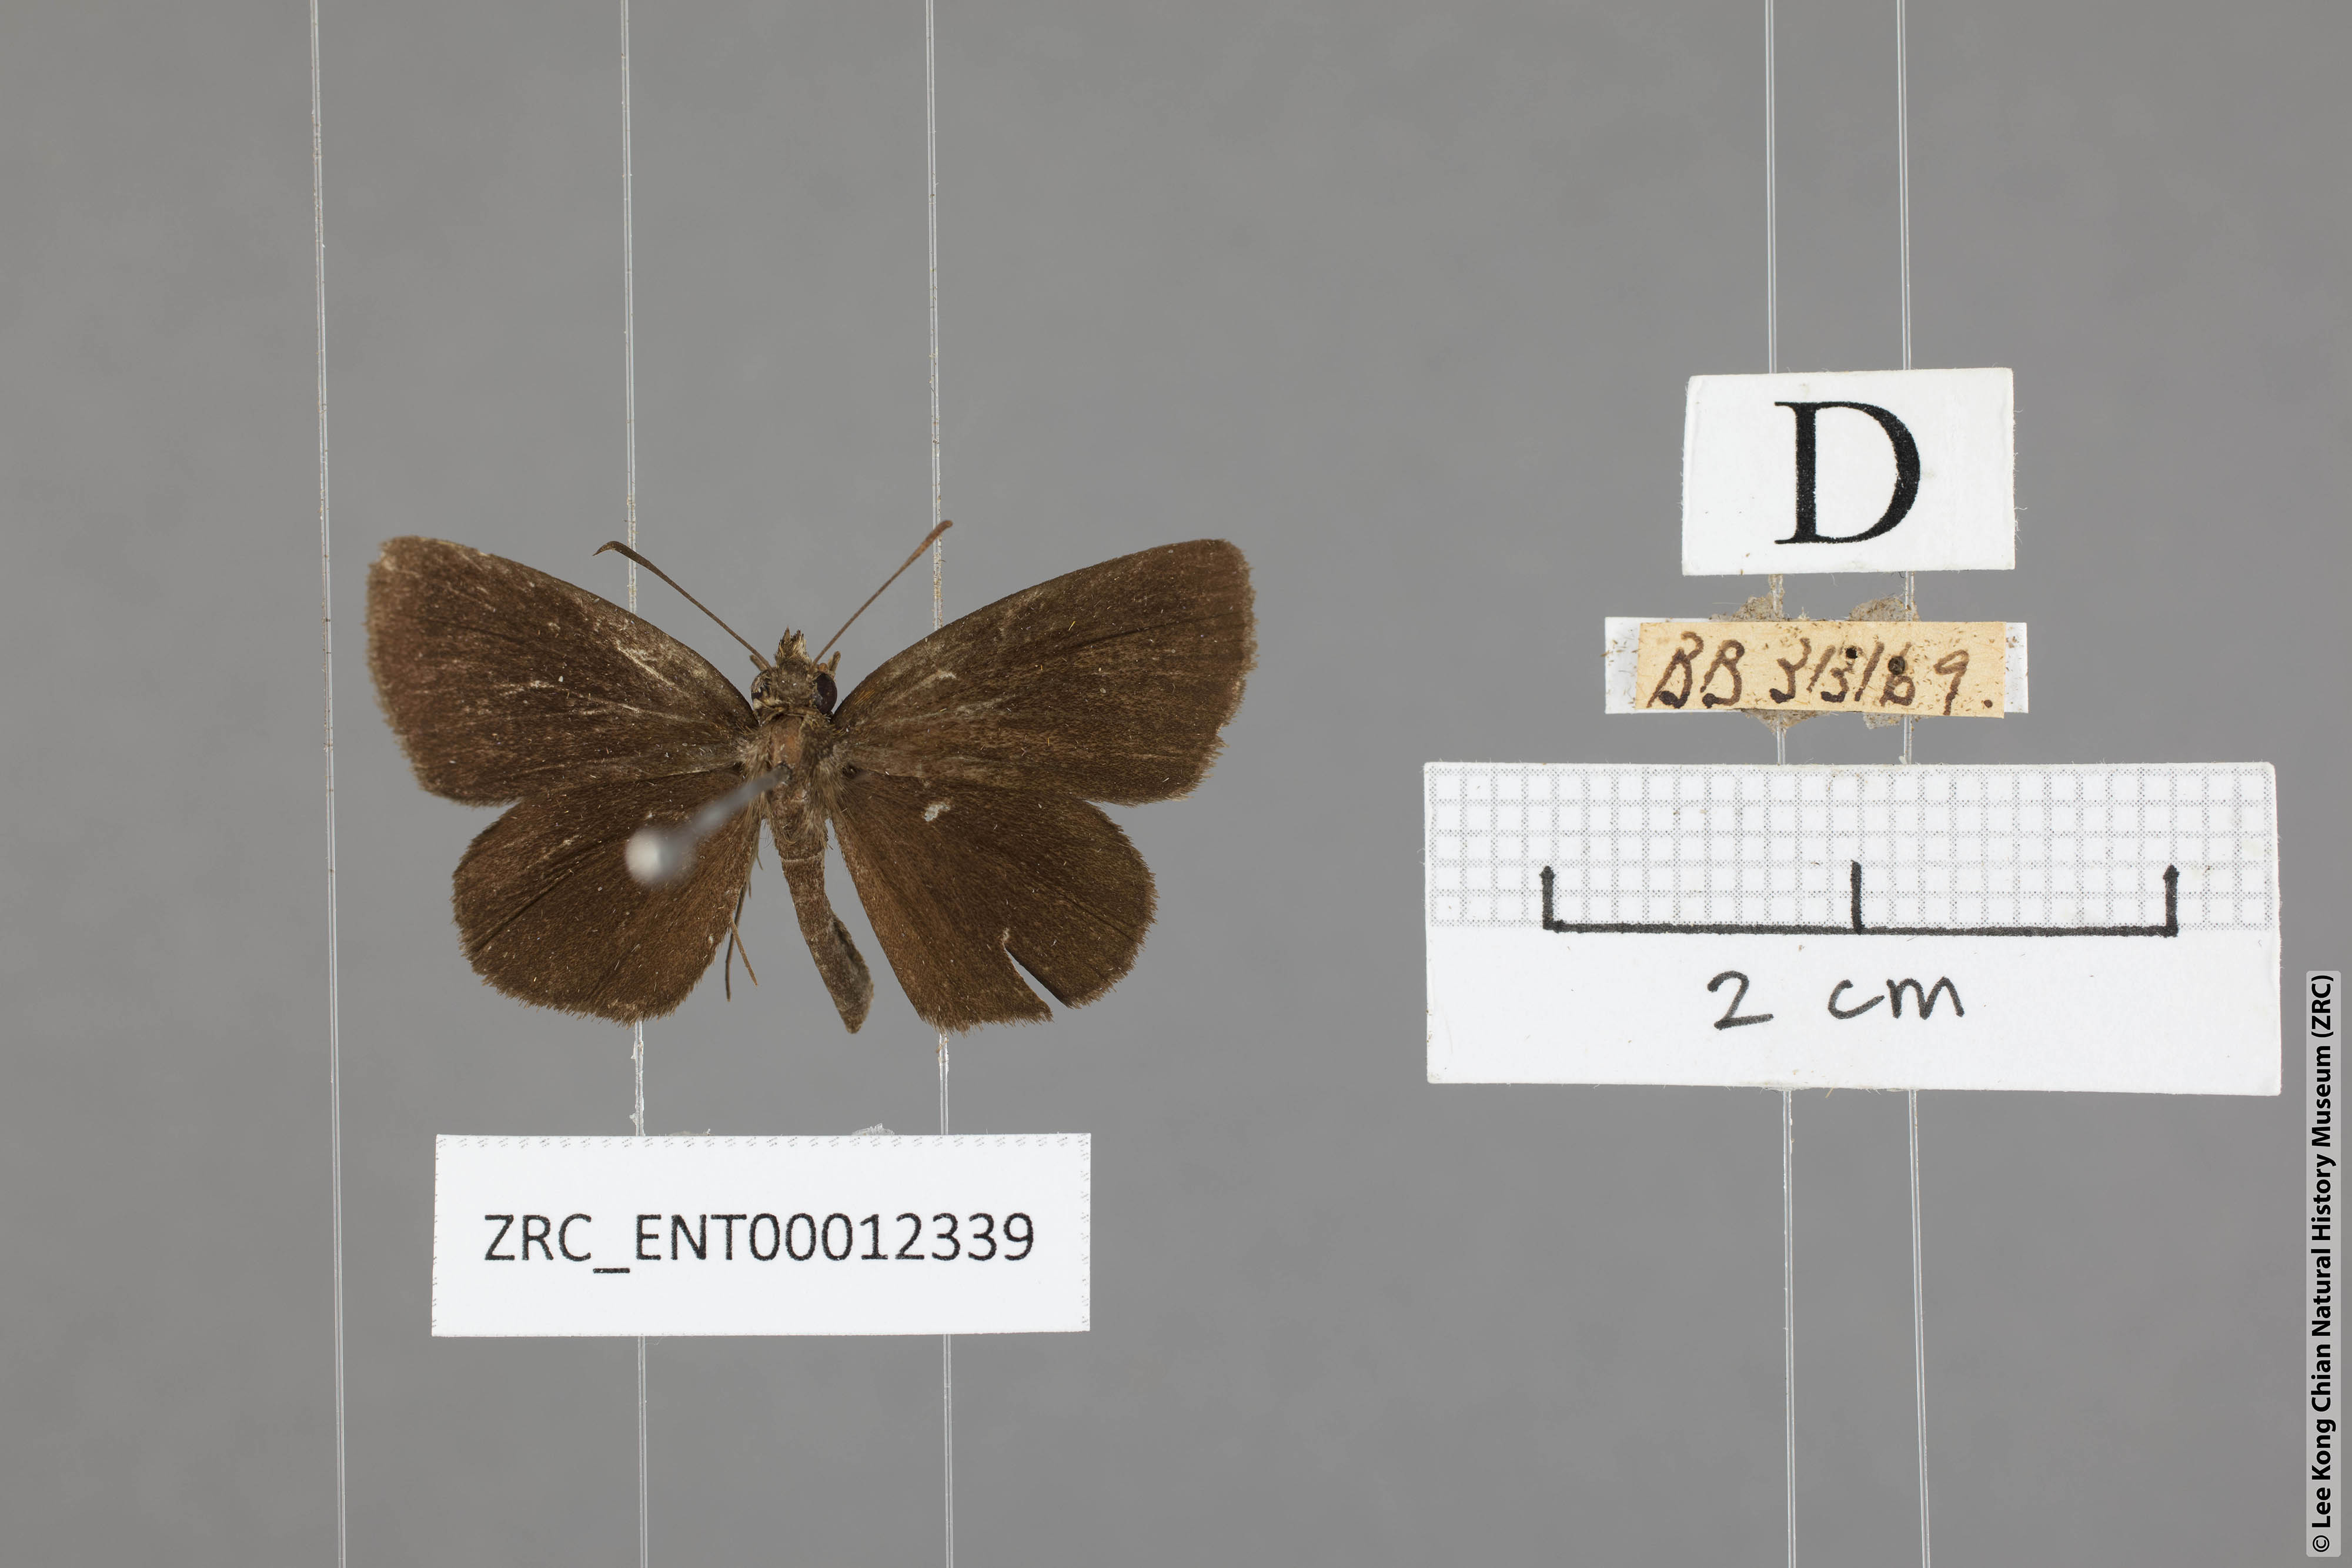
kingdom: Animalia
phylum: Arthropoda
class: Insecta
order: Lepidoptera
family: Hesperiidae
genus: Astictopterus
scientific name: Astictopterus jama
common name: Forest hopper
